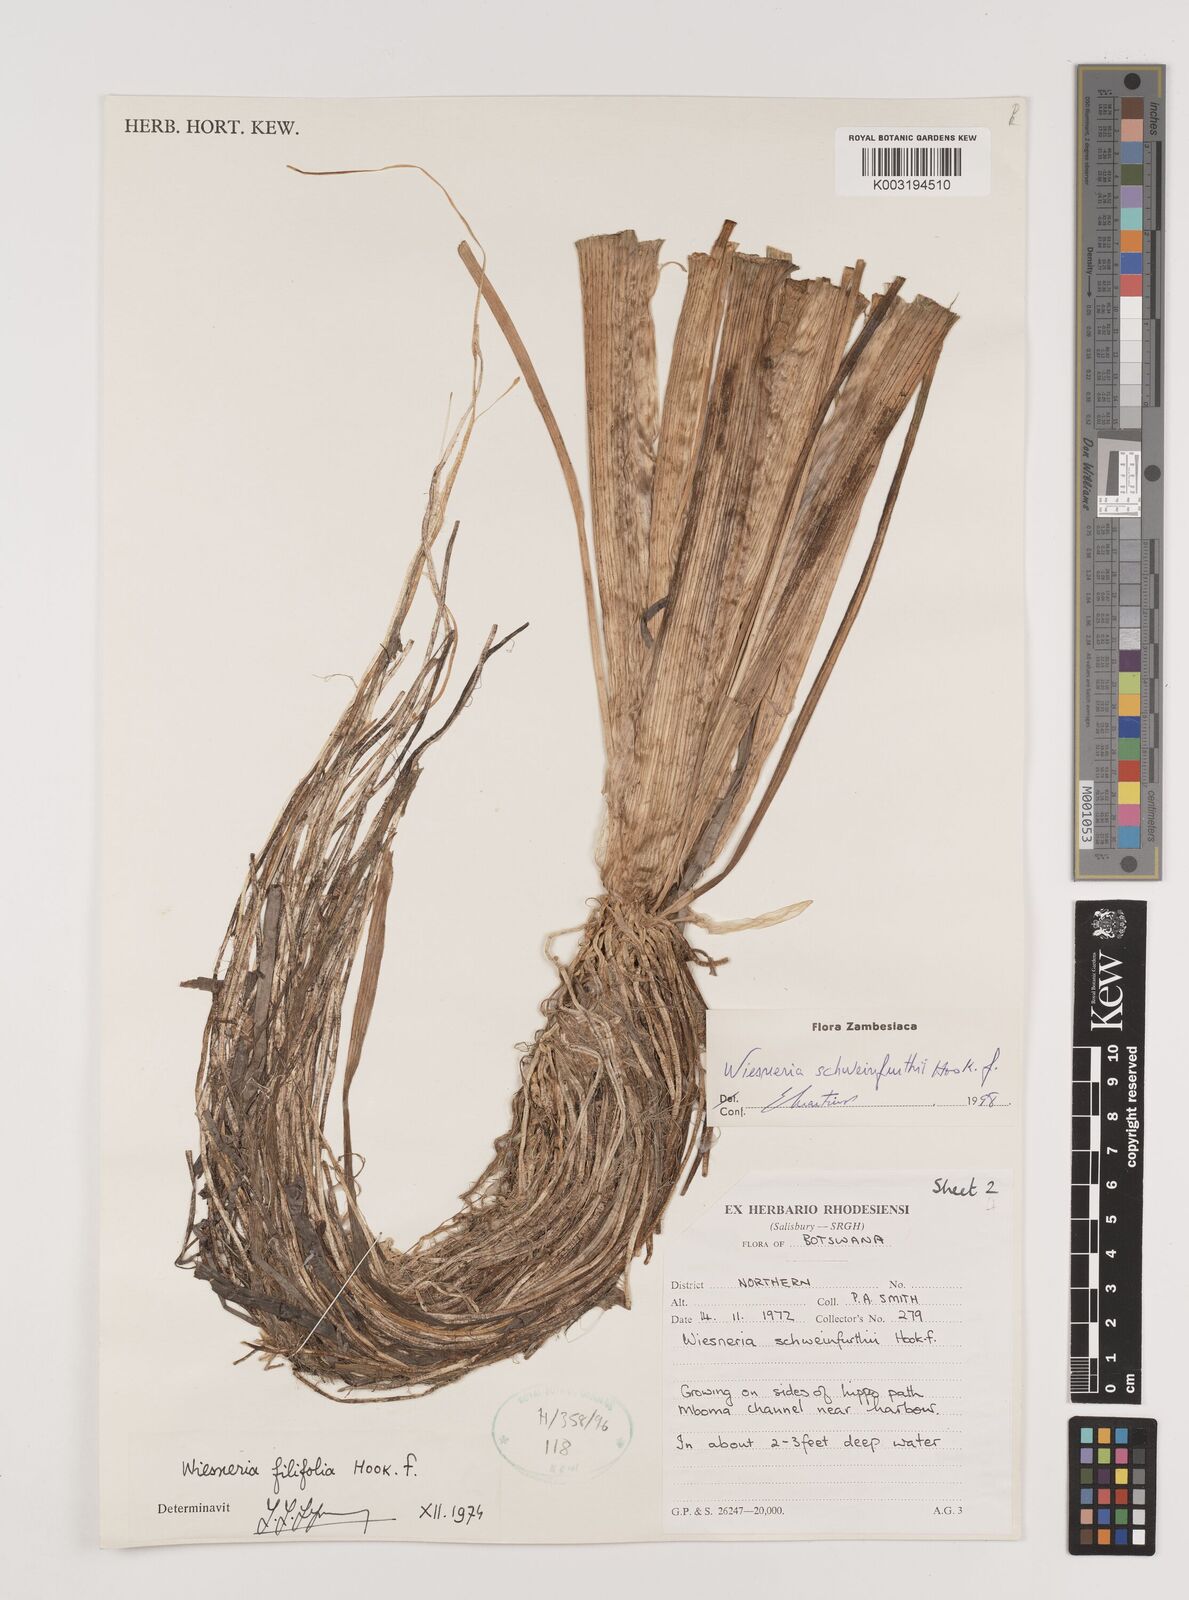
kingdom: Plantae
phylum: Tracheophyta
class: Liliopsida
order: Alismatales
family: Alismataceae
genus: Wiesneria
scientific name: Wiesneria schweinfurthii
